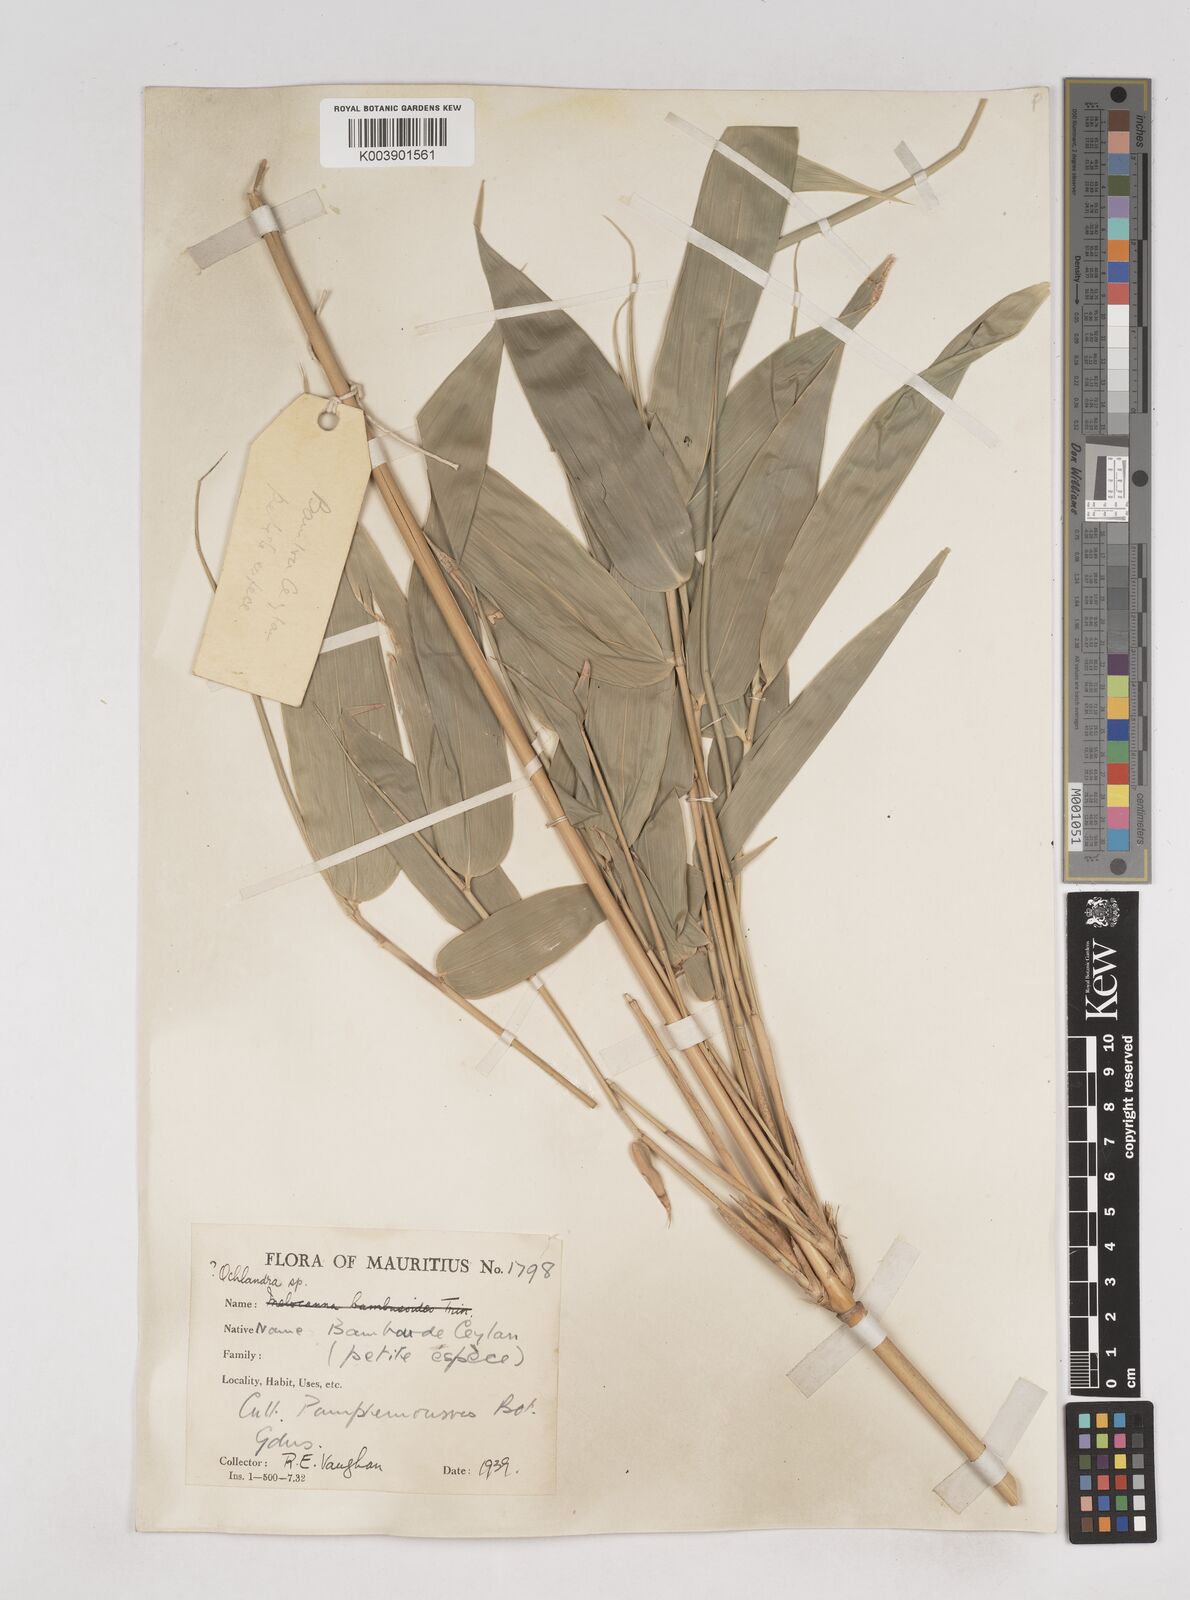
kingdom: Plantae
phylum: Tracheophyta
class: Liliopsida
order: Poales
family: Poaceae
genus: Ochlandra
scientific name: Ochlandra
